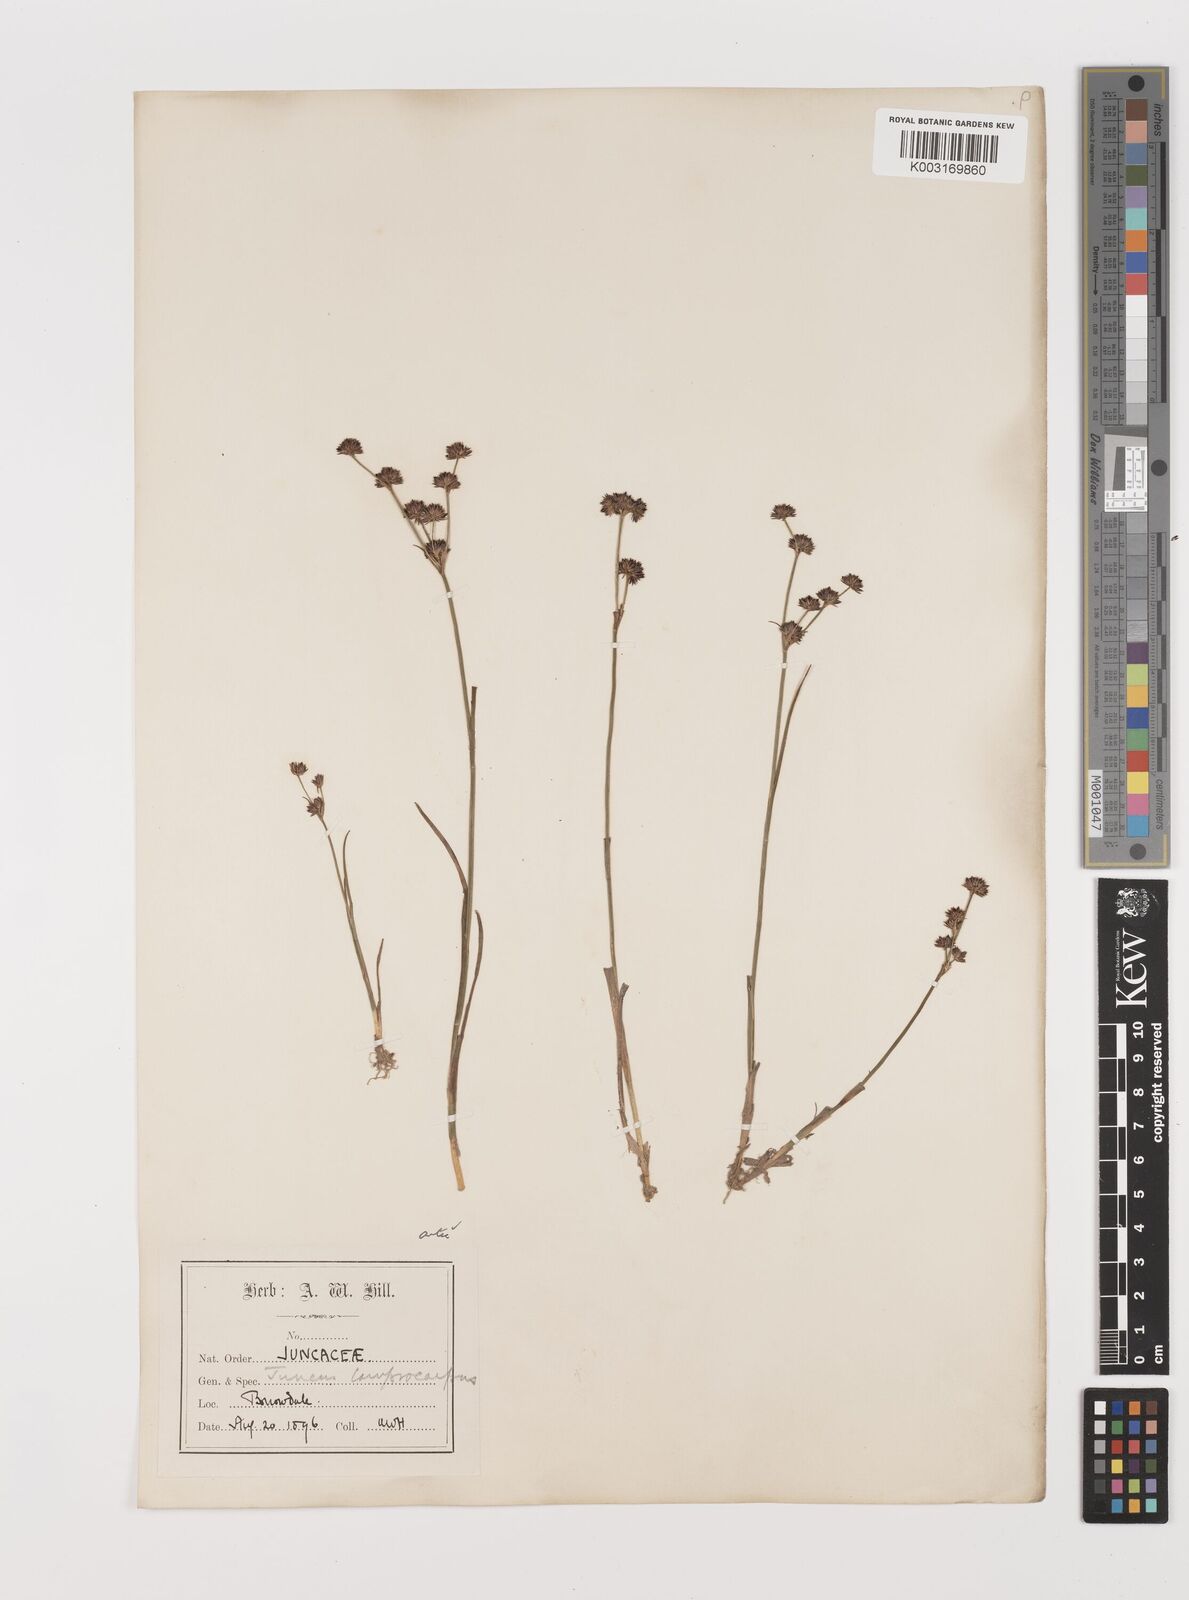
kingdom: Plantae
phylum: Tracheophyta
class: Liliopsida
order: Poales
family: Juncaceae
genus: Juncus
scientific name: Juncus articulatus
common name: Jointed rush
